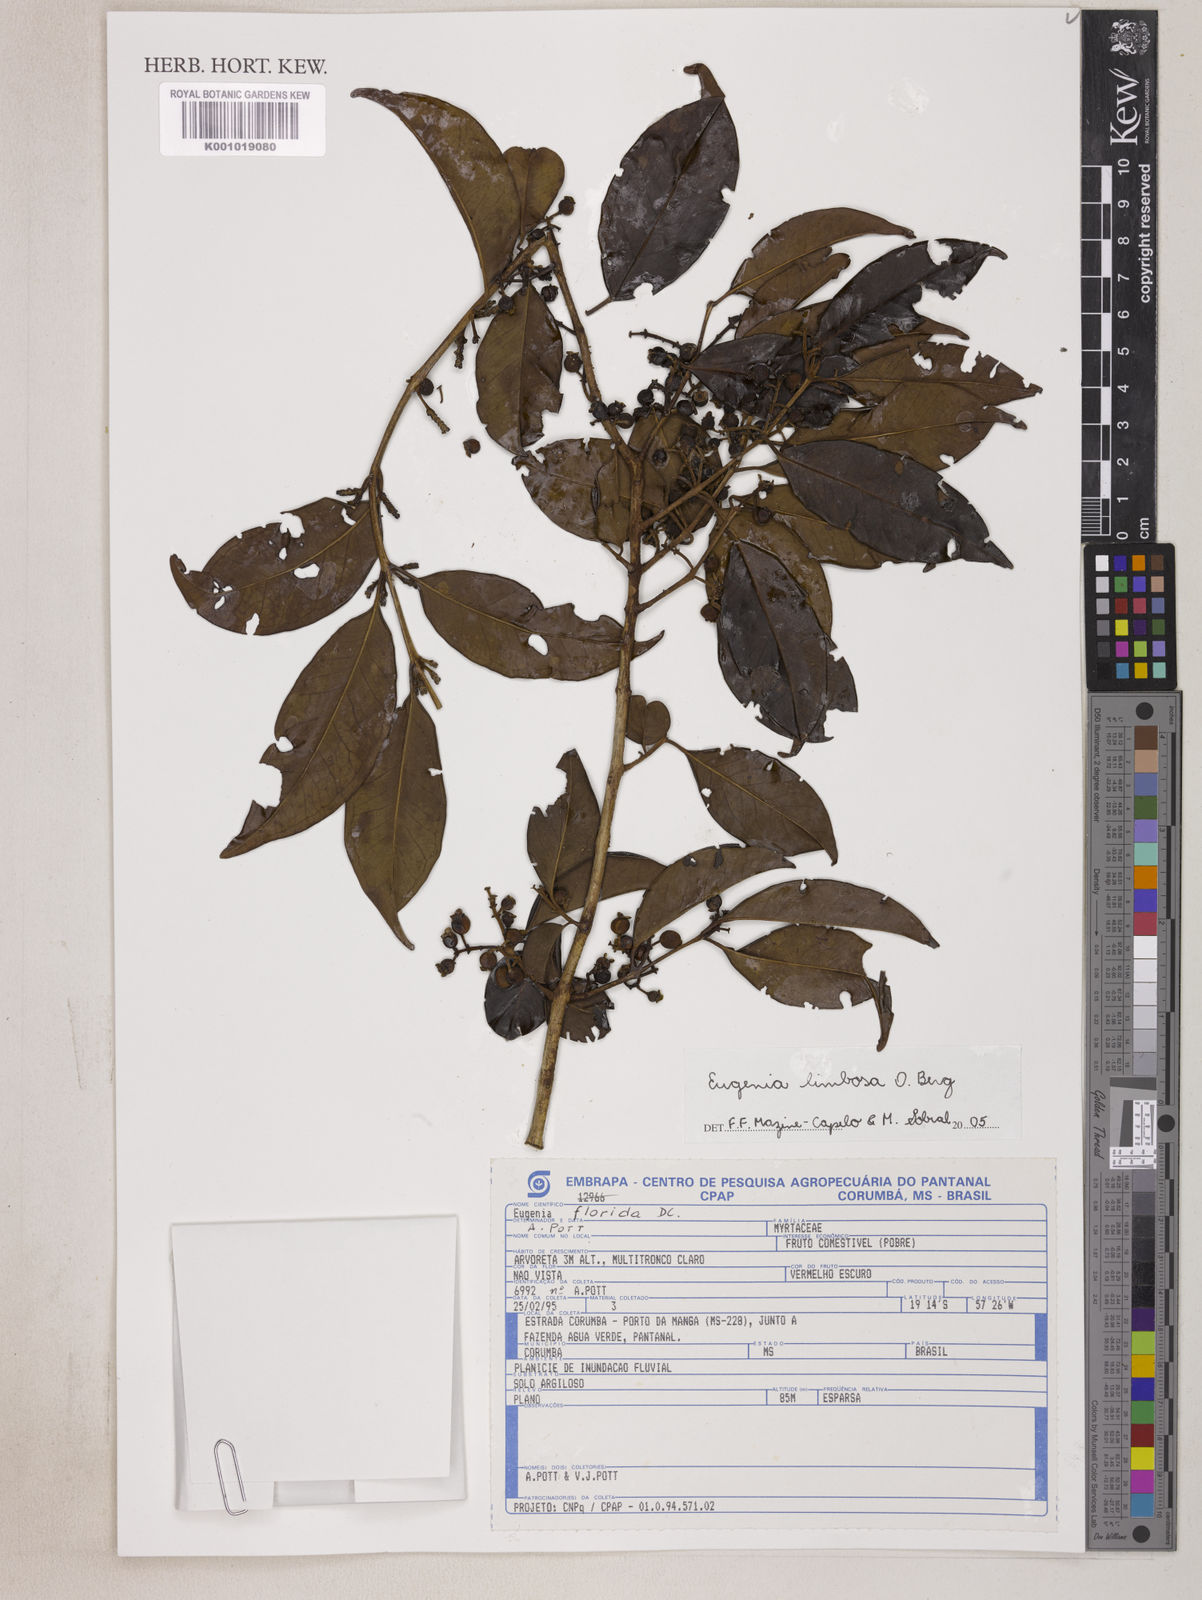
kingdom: Plantae
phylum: Tracheophyta
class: Magnoliopsida
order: Myrtales
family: Myrtaceae
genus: Eugenia
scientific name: Eugenia limbosa
